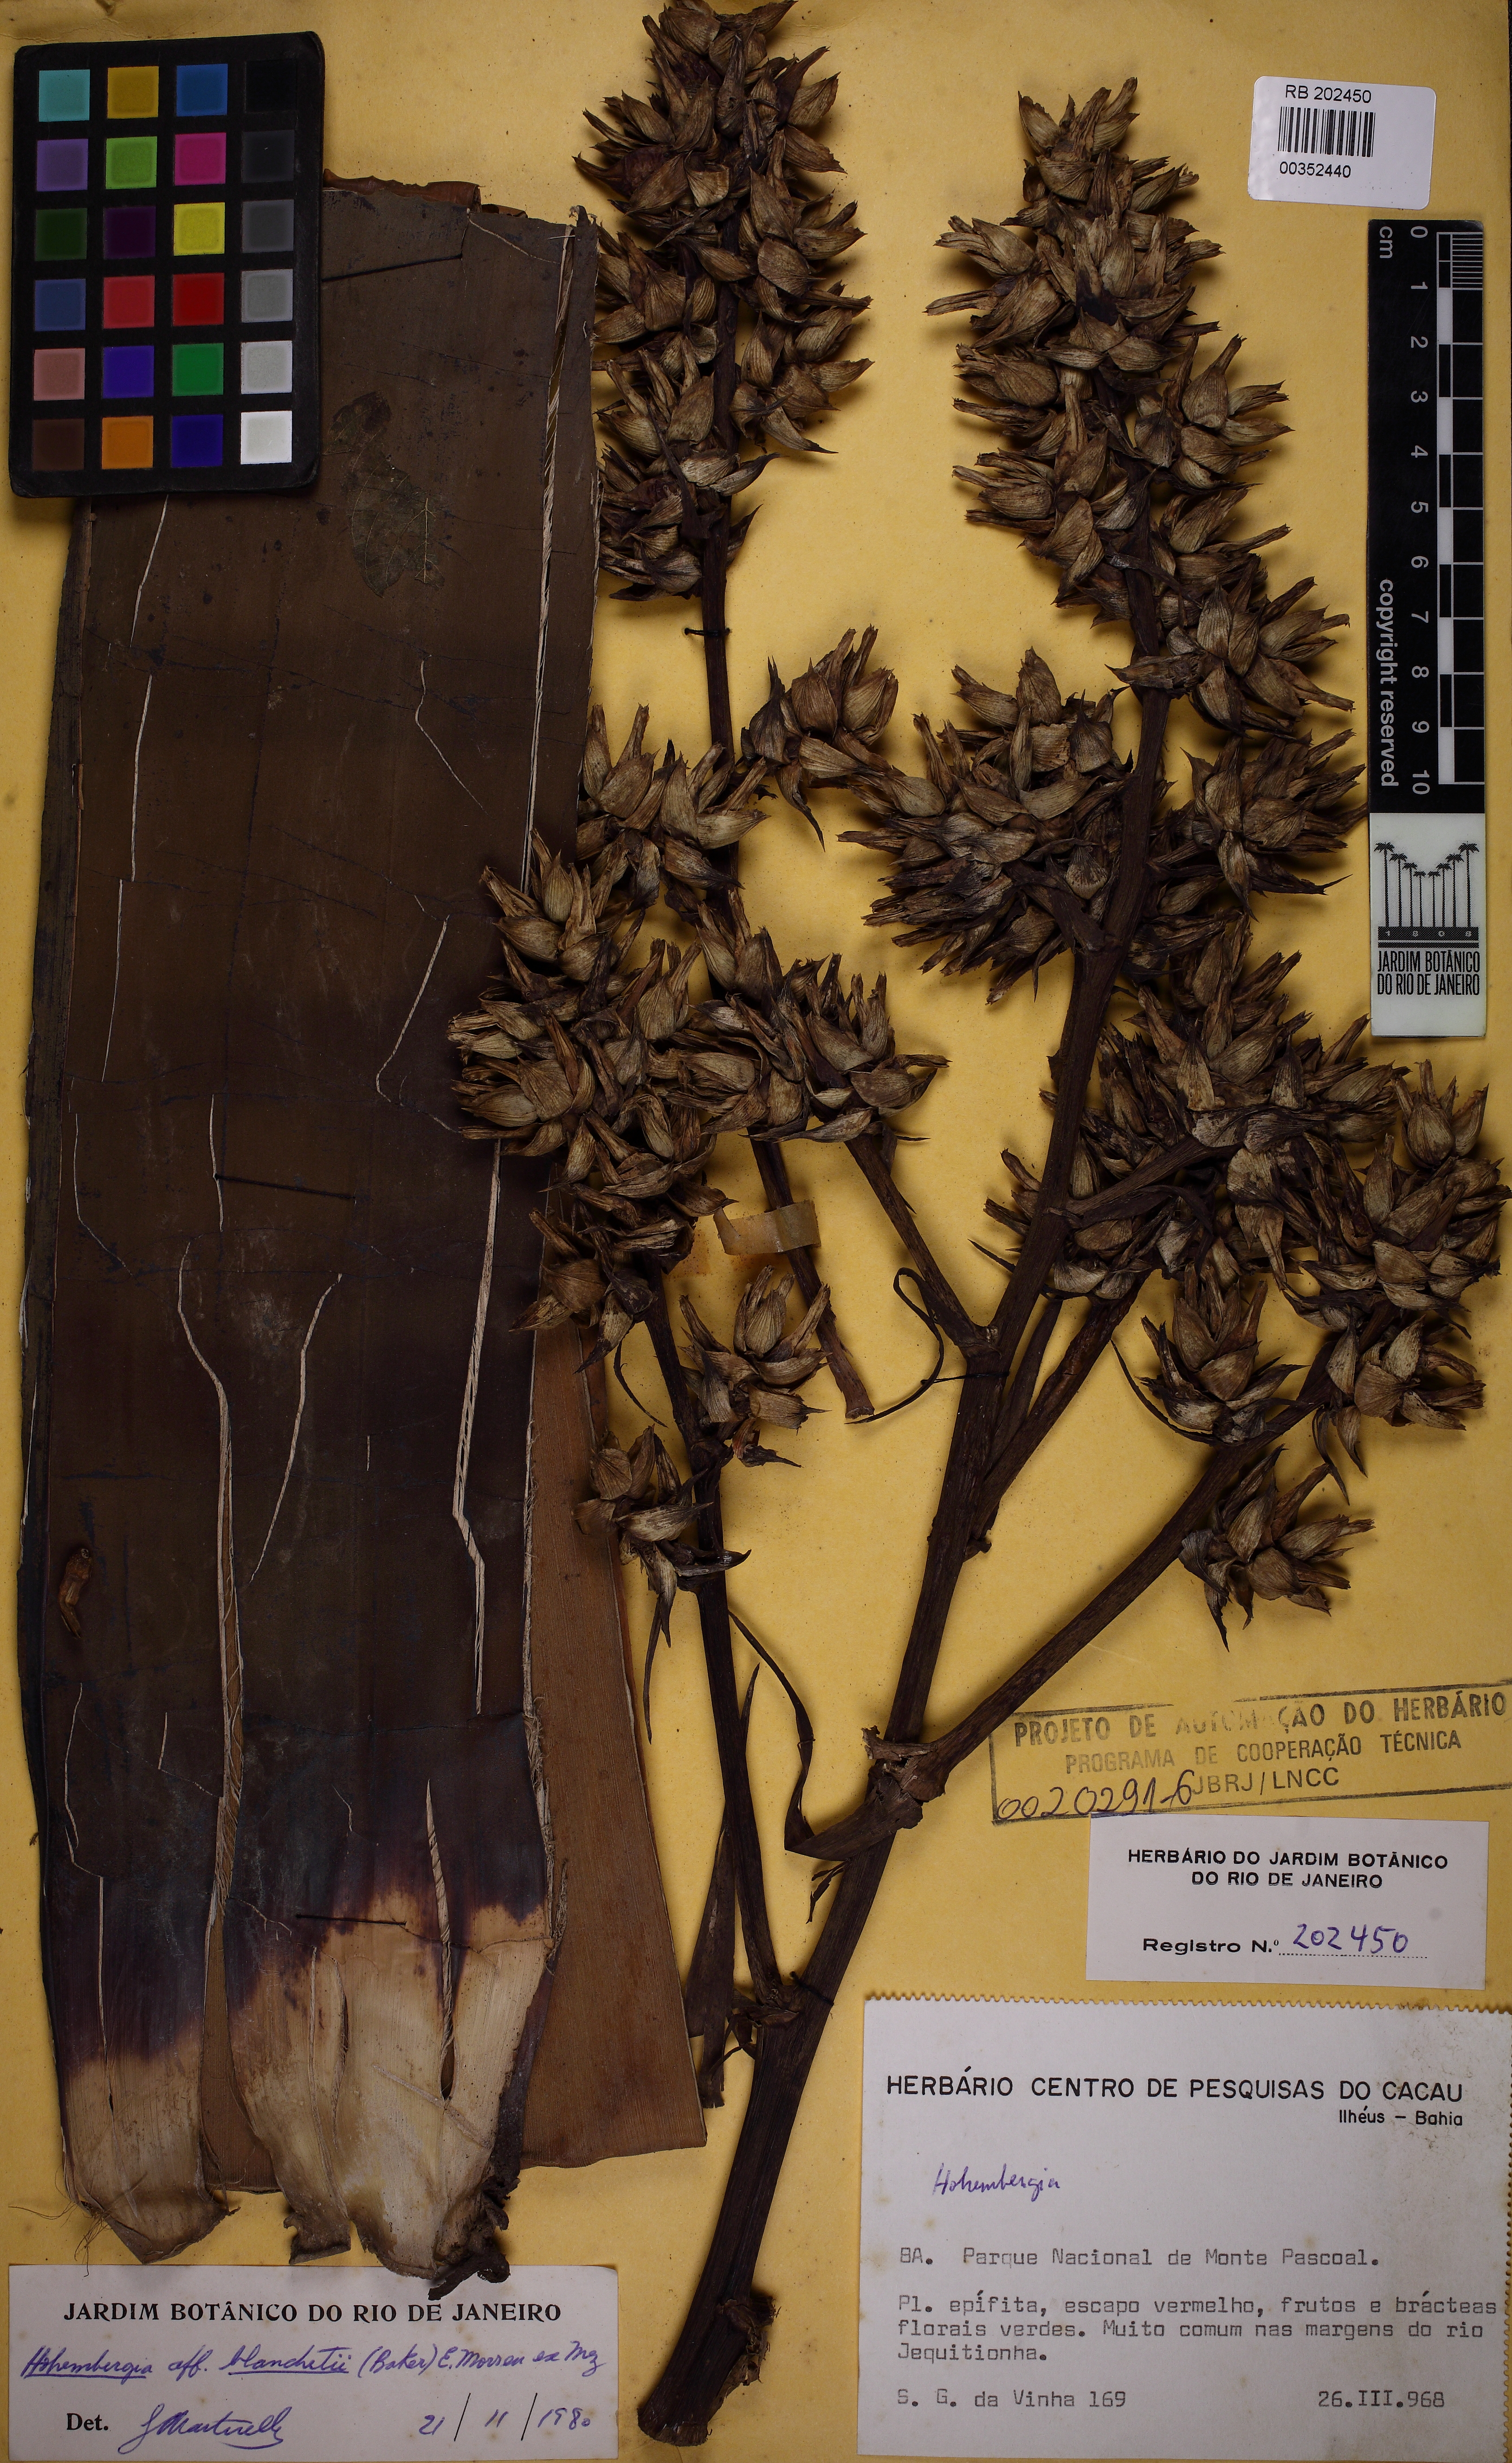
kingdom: Plantae
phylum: Tracheophyta
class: Liliopsida
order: Poales
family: Bromeliaceae
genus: Hohenbergia
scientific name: Hohenbergia blanchetii
